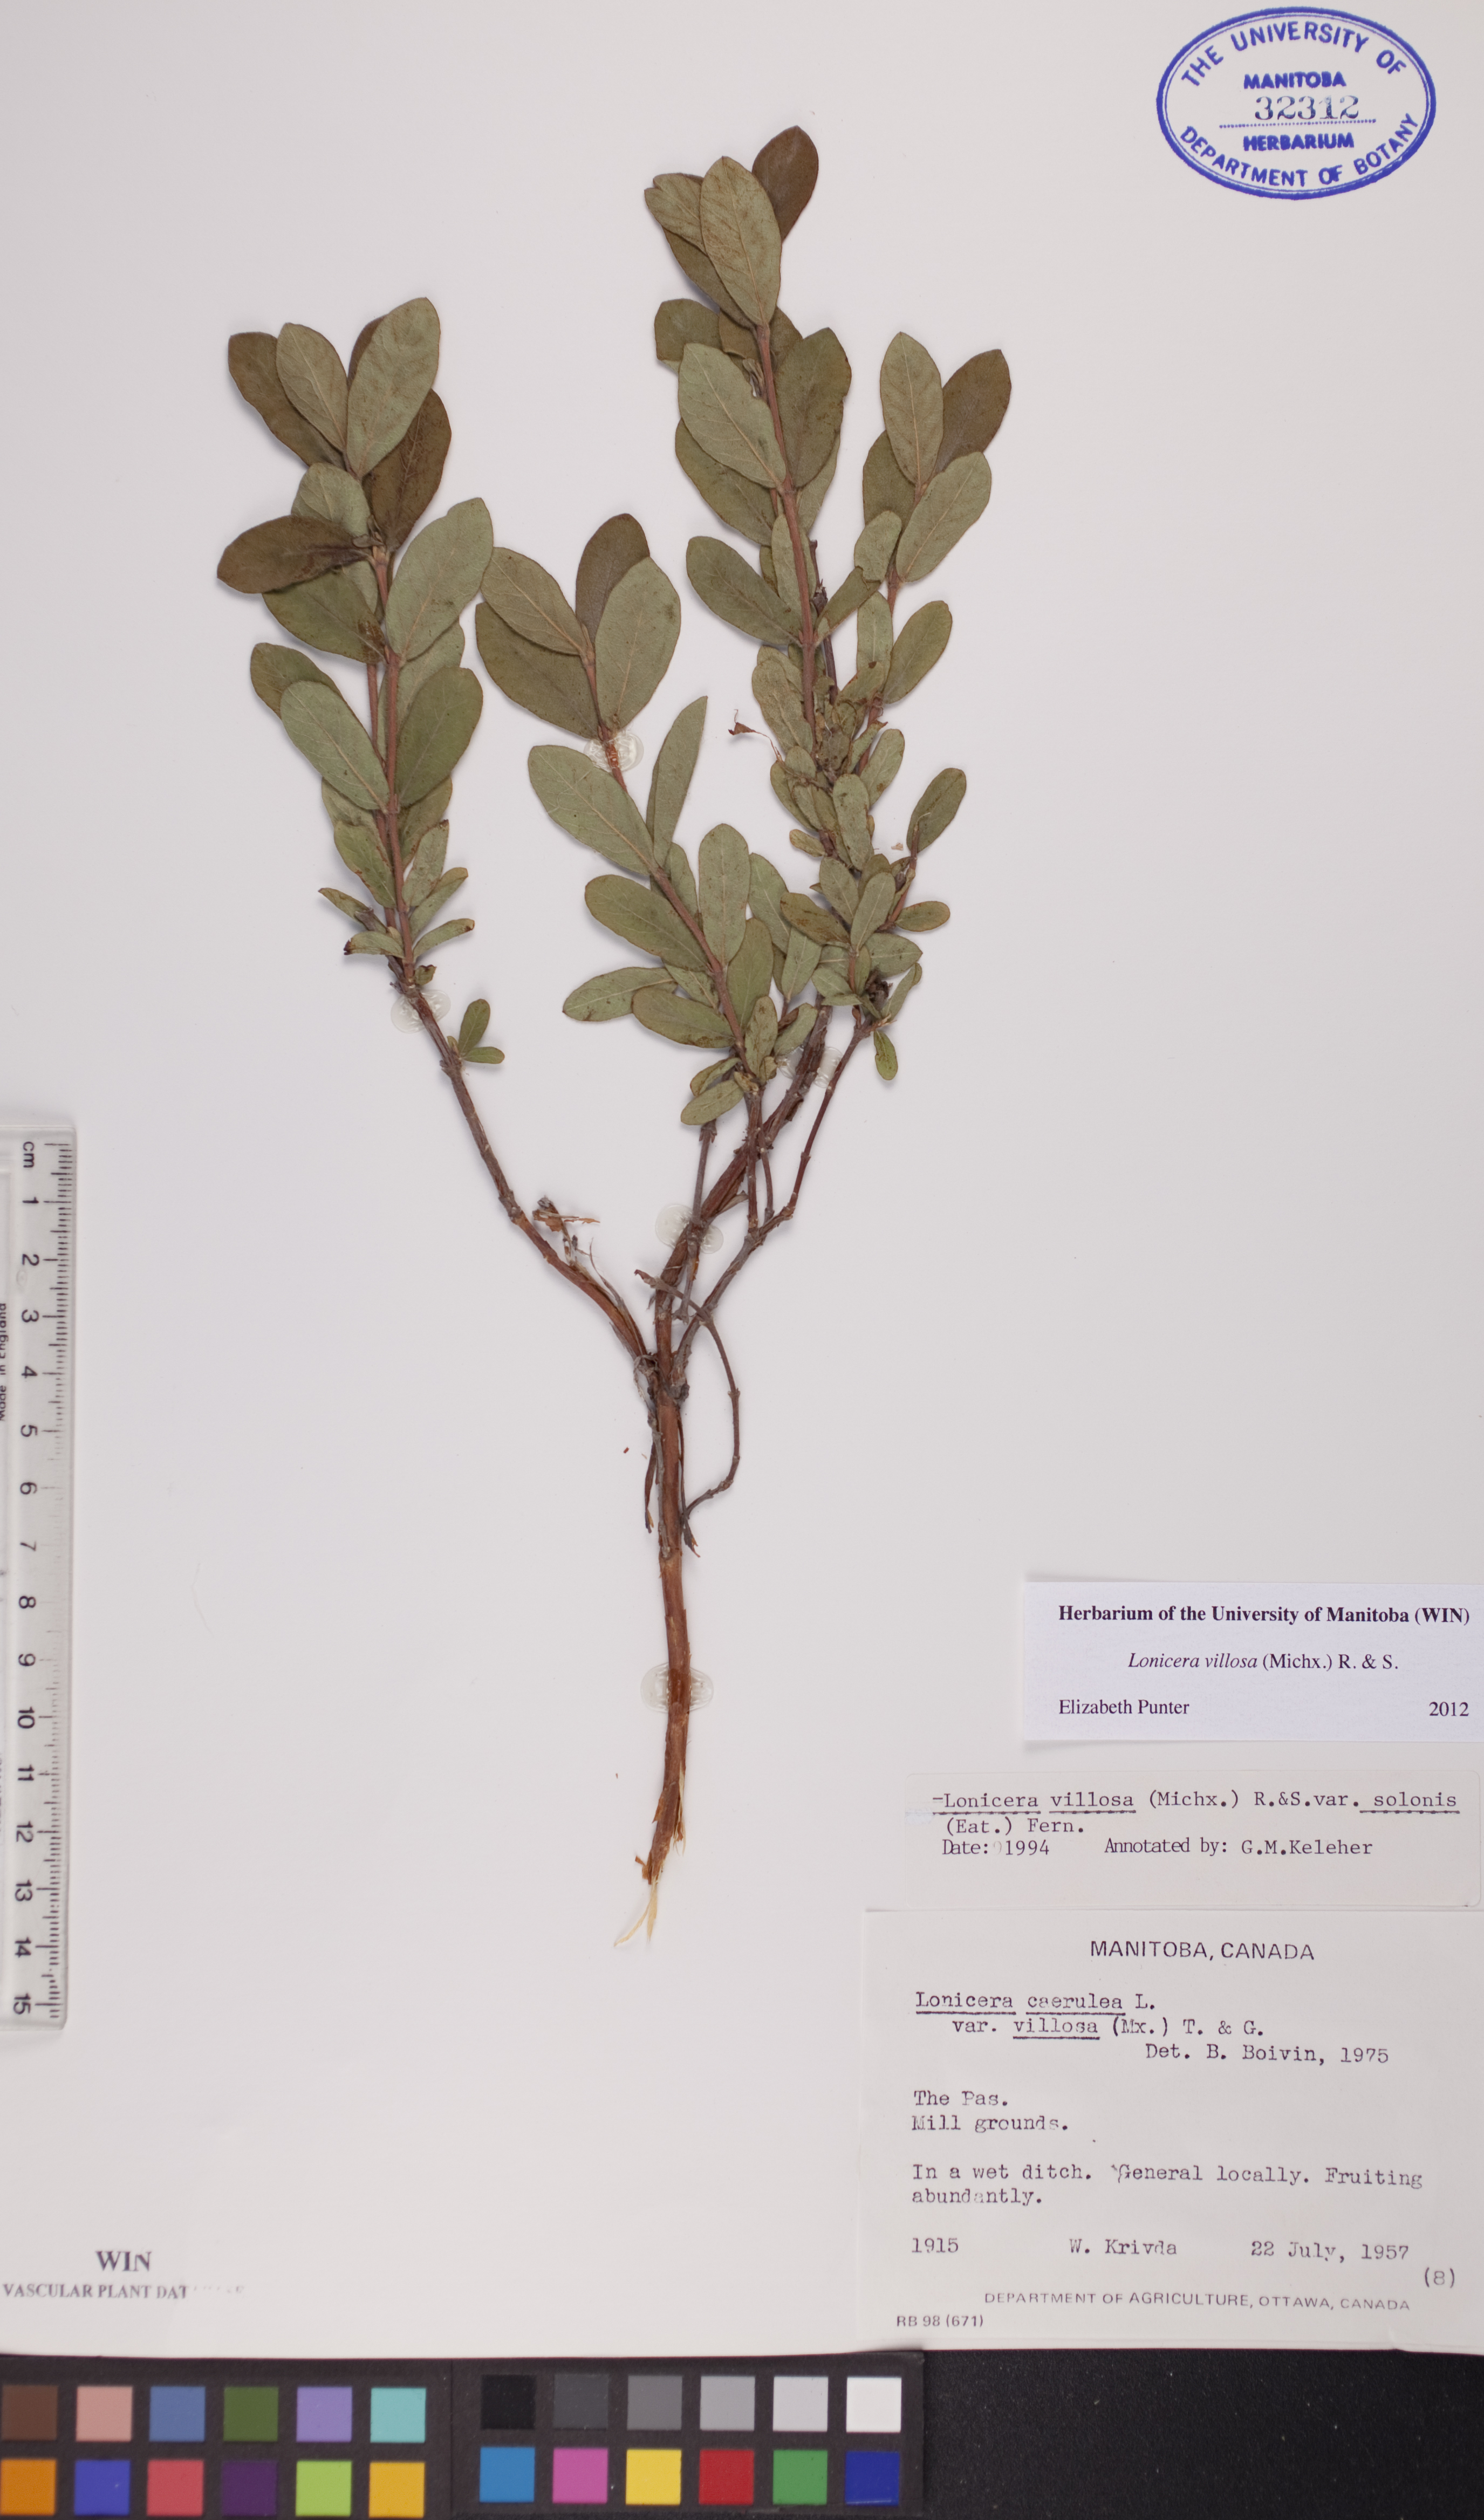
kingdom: Plantae
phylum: Tracheophyta
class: Magnoliopsida
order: Dipsacales
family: Caprifoliaceae
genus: Lonicera
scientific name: Lonicera villosa
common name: Mountain fly-honeysuckle
